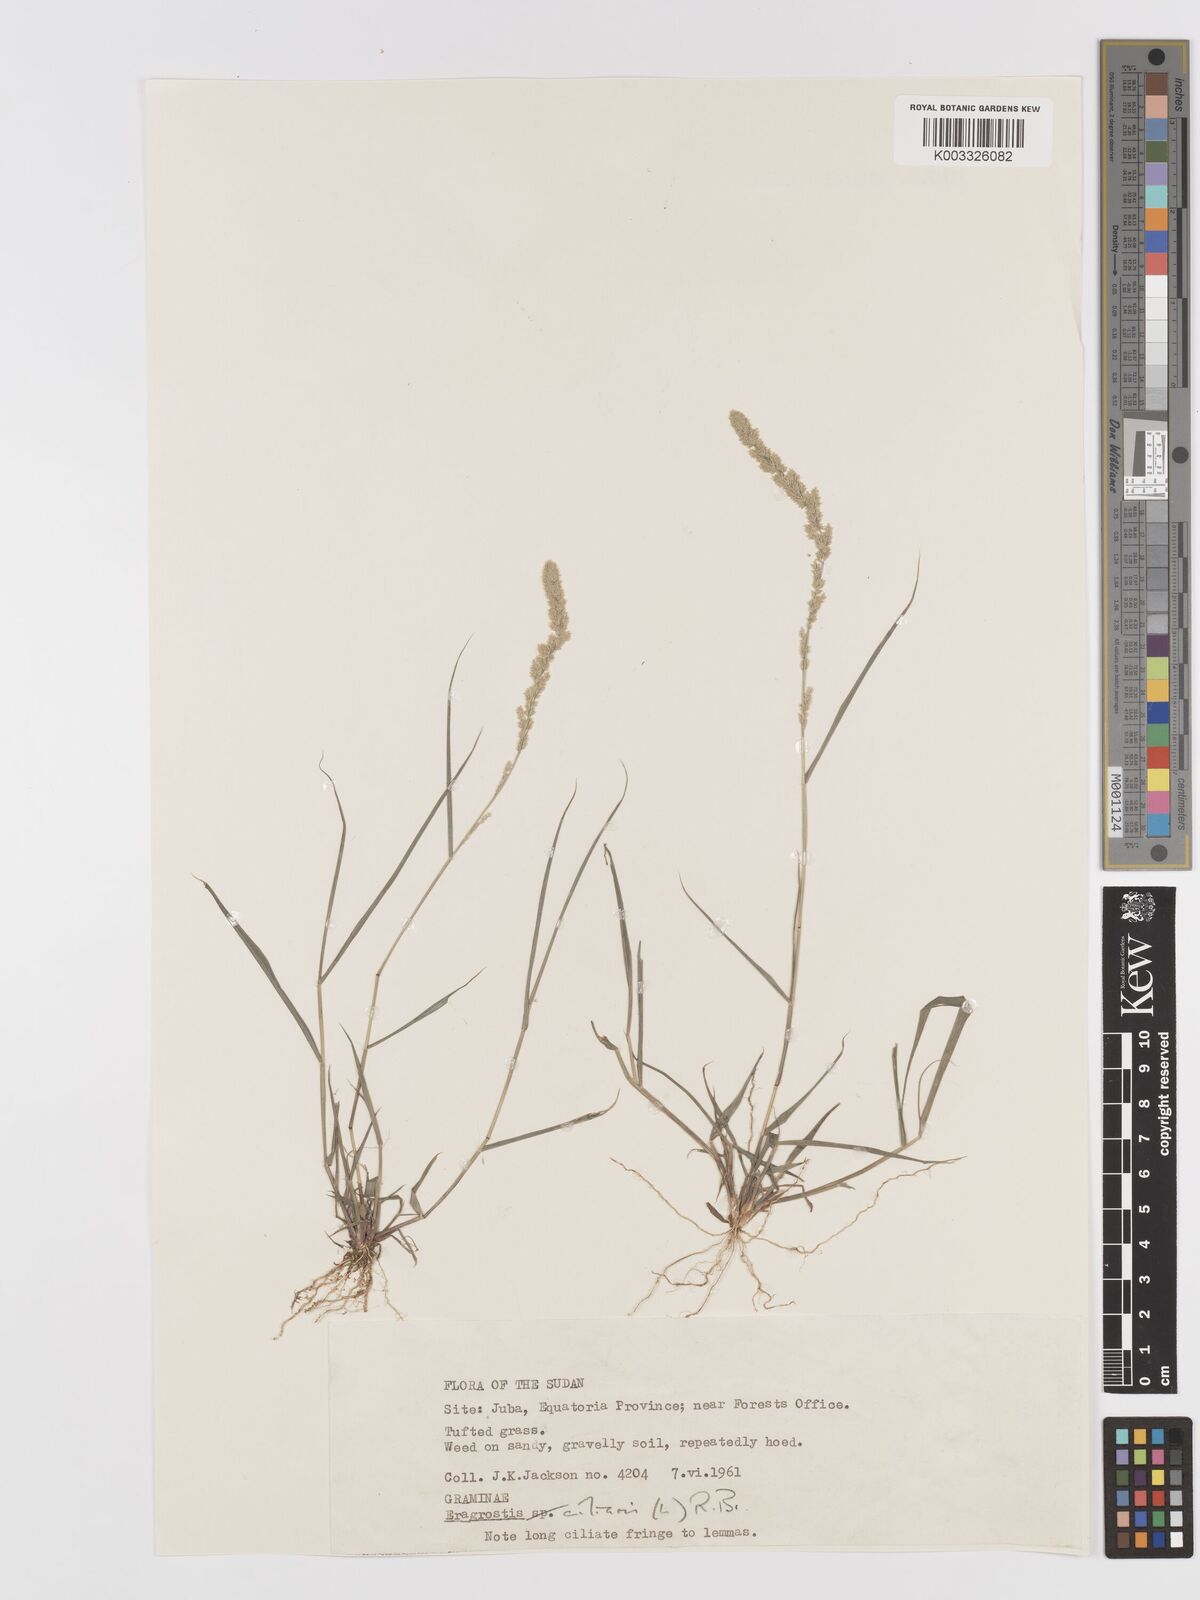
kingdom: Plantae
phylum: Tracheophyta
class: Liliopsida
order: Poales
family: Poaceae
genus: Eragrostis
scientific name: Eragrostis ciliaris
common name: Gophertail lovegrass
